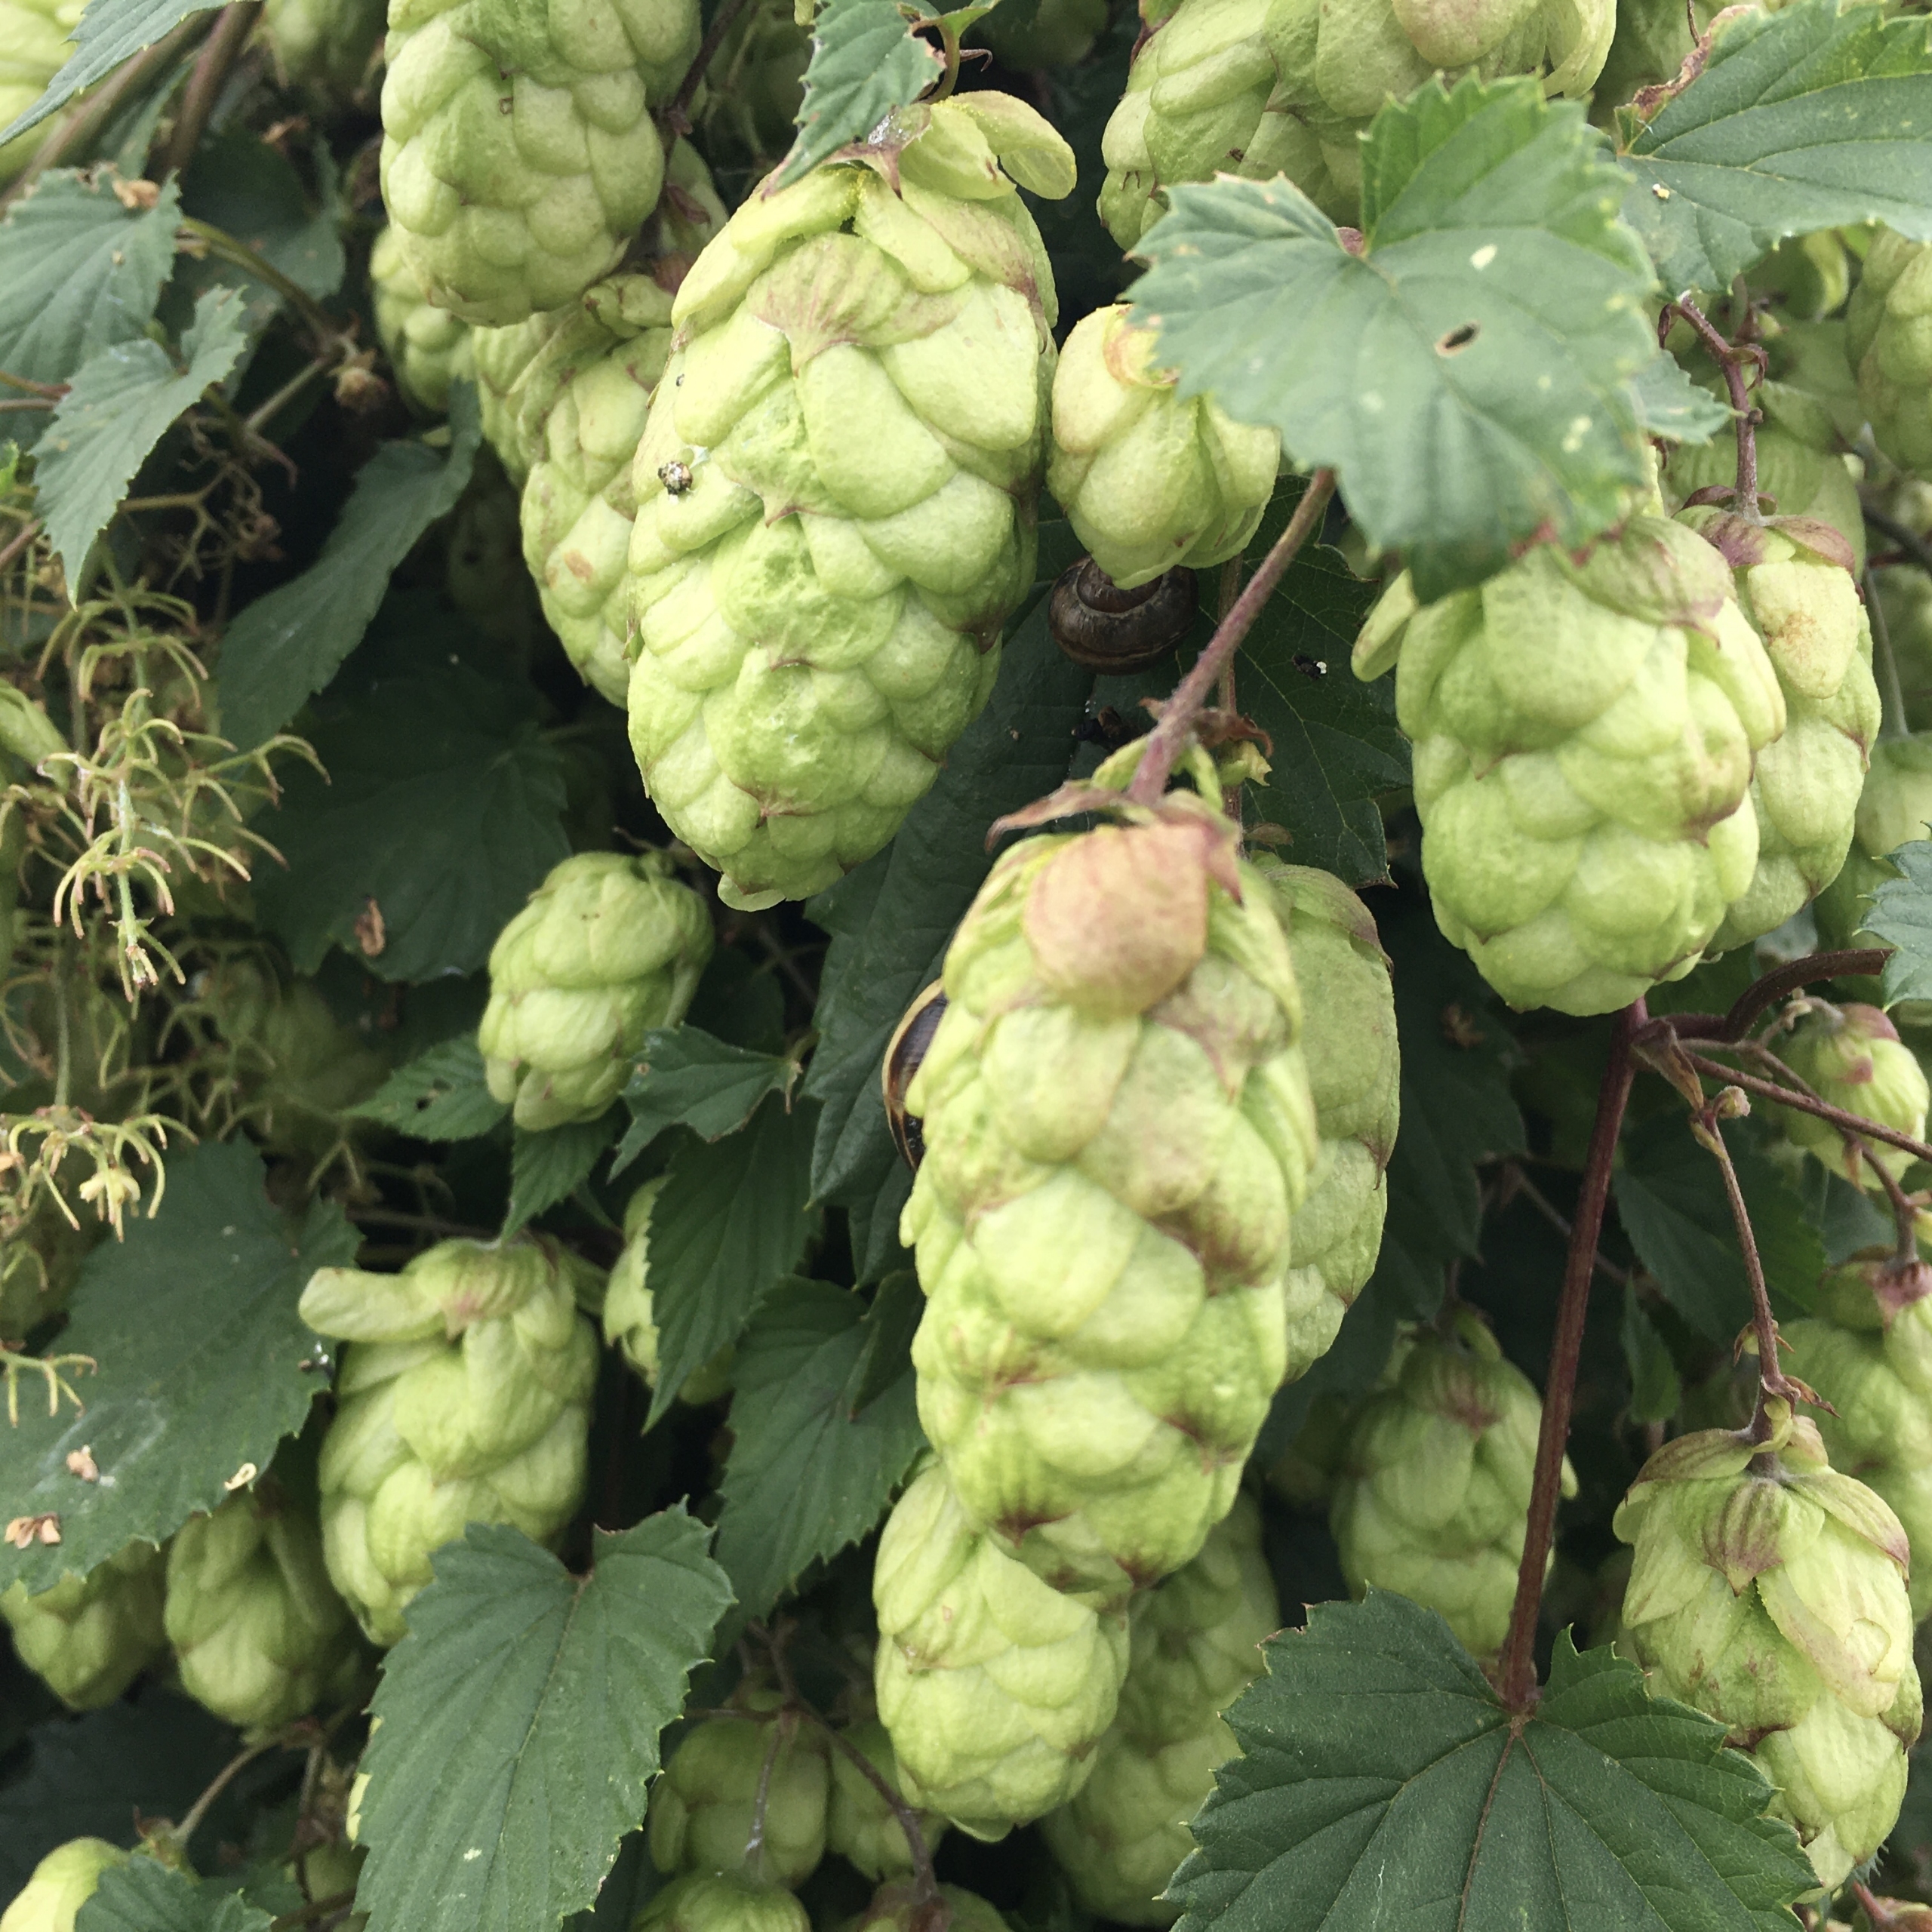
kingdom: Plantae
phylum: Tracheophyta
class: Magnoliopsida
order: Rosales
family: Cannabaceae
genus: Humulus
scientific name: Humulus lupulus
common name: Humle
